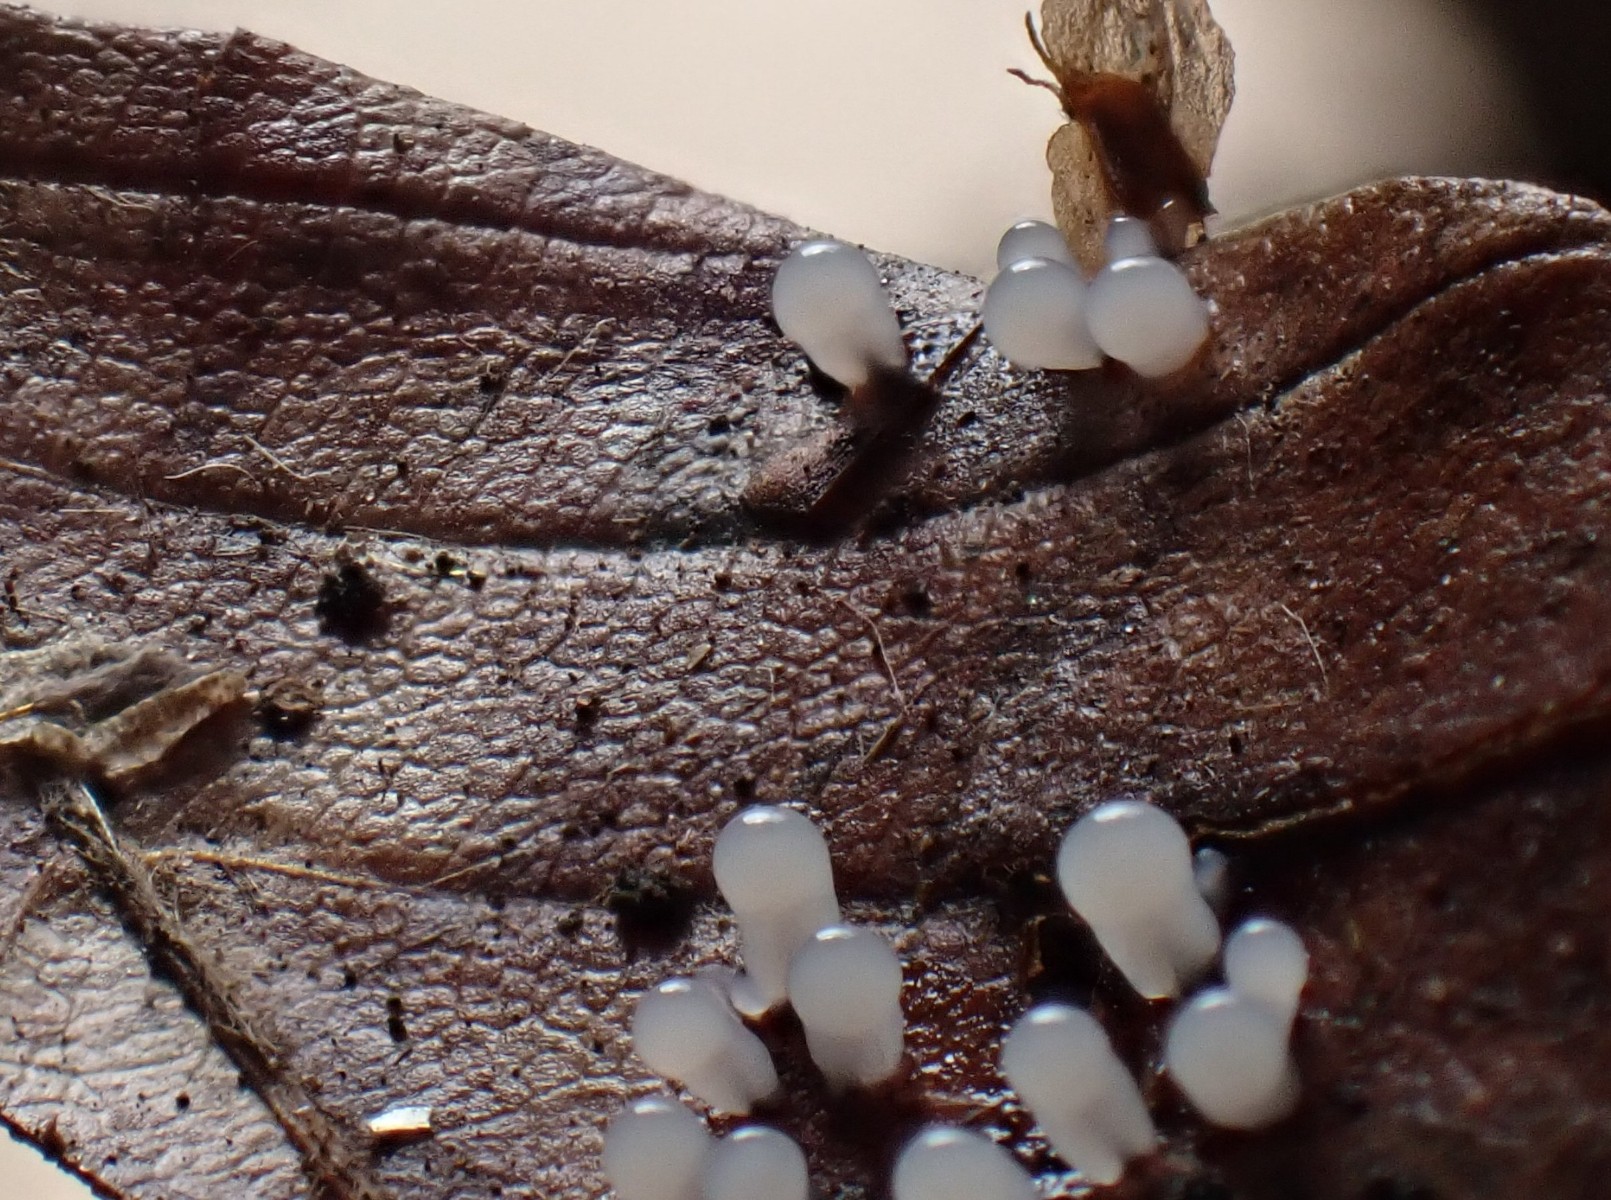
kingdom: Protozoa
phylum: Mycetozoa
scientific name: Mycetozoa
